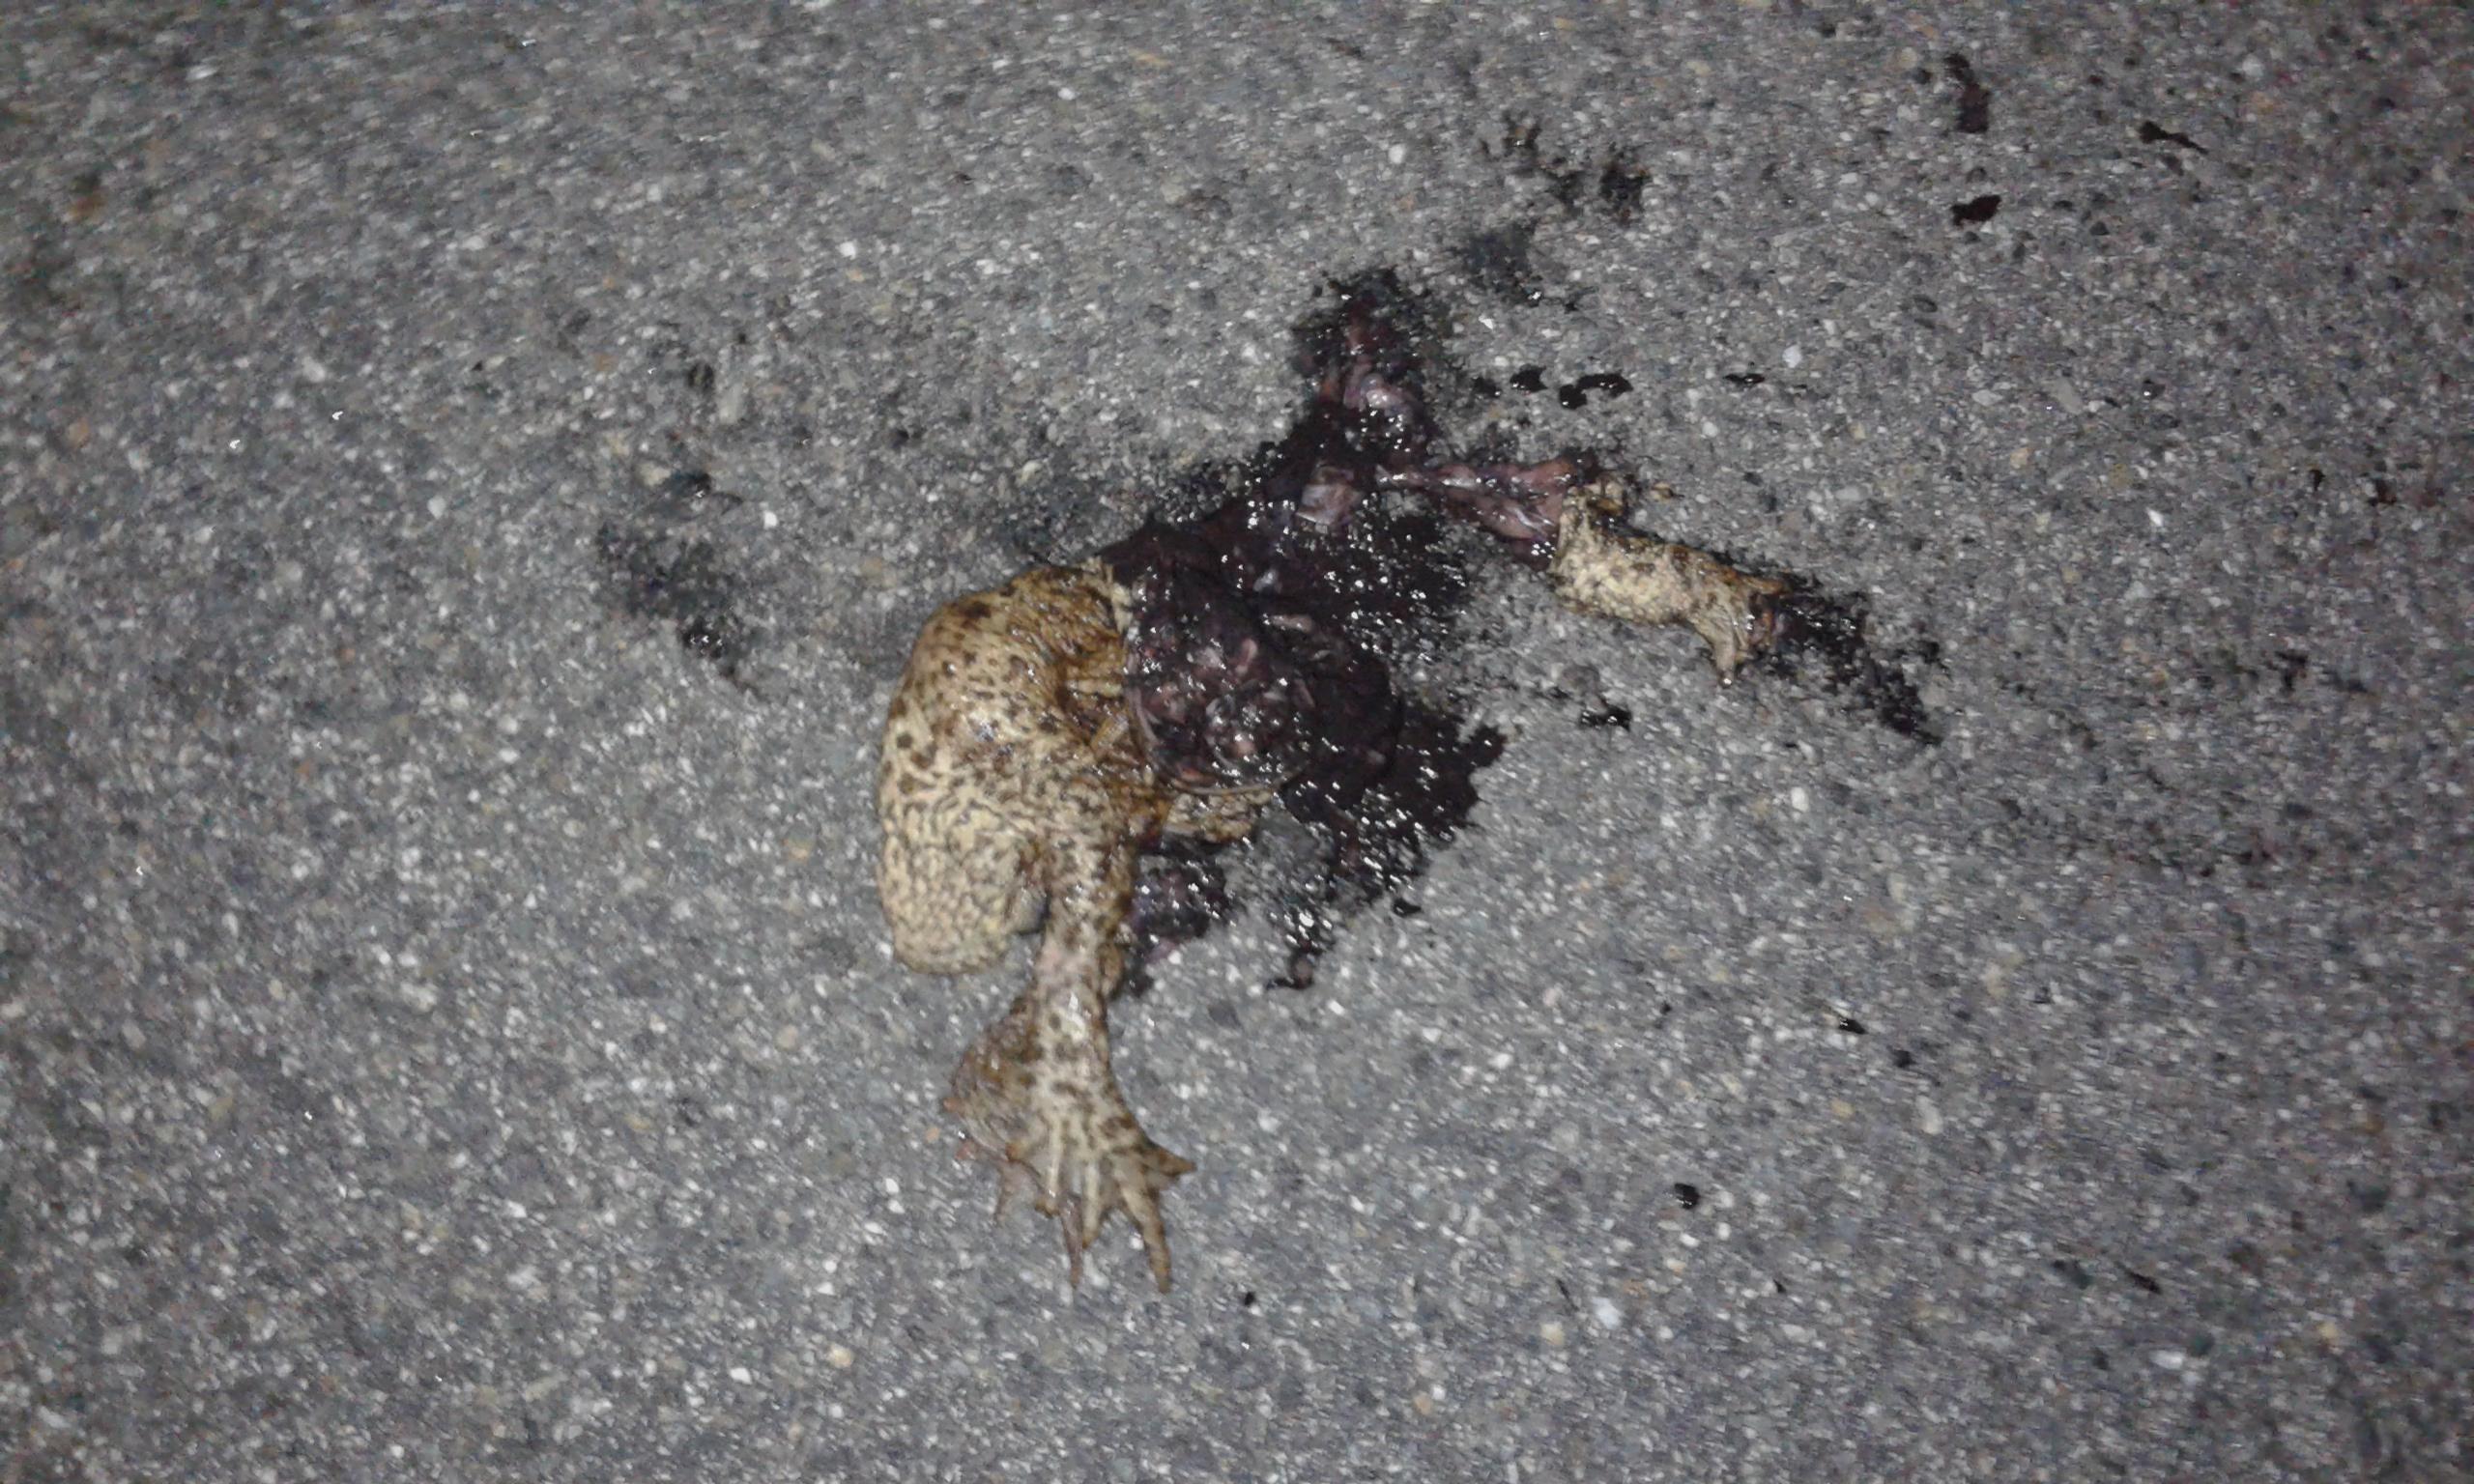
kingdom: Animalia
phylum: Chordata
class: Amphibia
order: Anura
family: Bufonidae
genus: Bufo
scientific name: Bufo bufo
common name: Common toad
